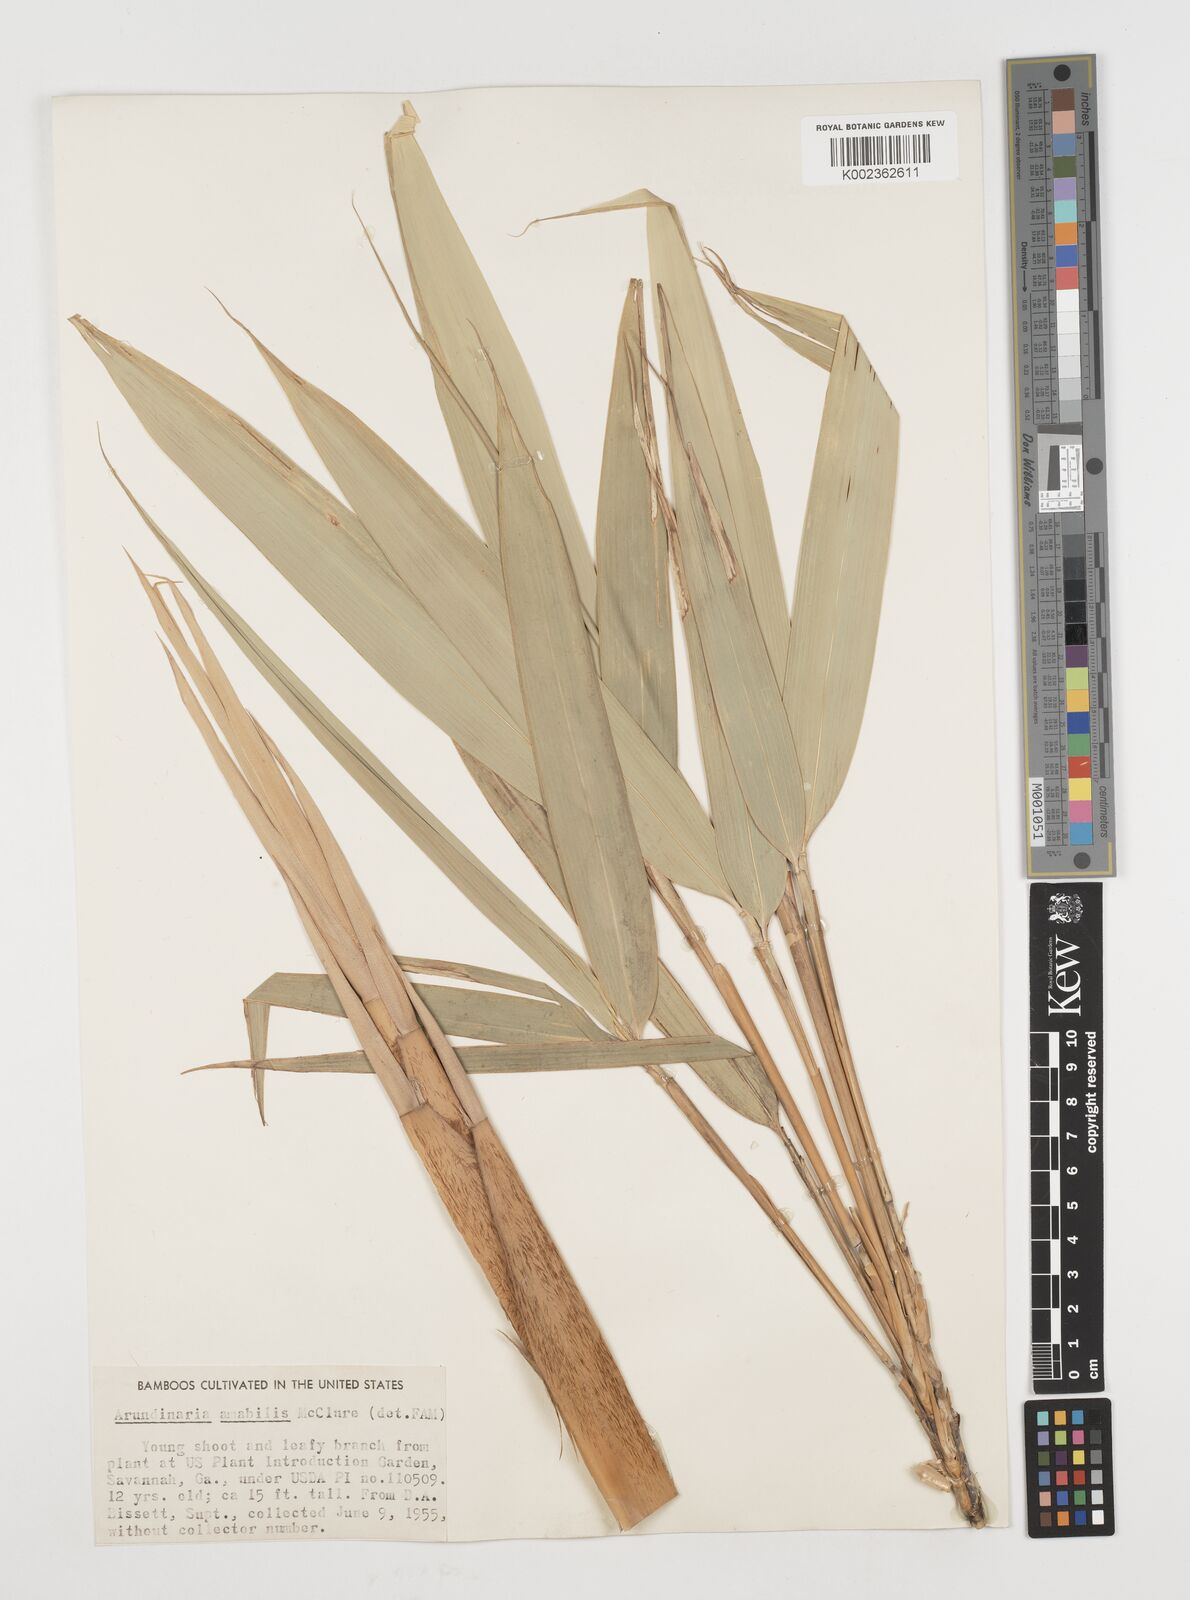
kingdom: Plantae
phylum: Tracheophyta
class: Liliopsida
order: Poales
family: Poaceae
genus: Pseudosasa
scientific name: Pseudosasa amabilis
